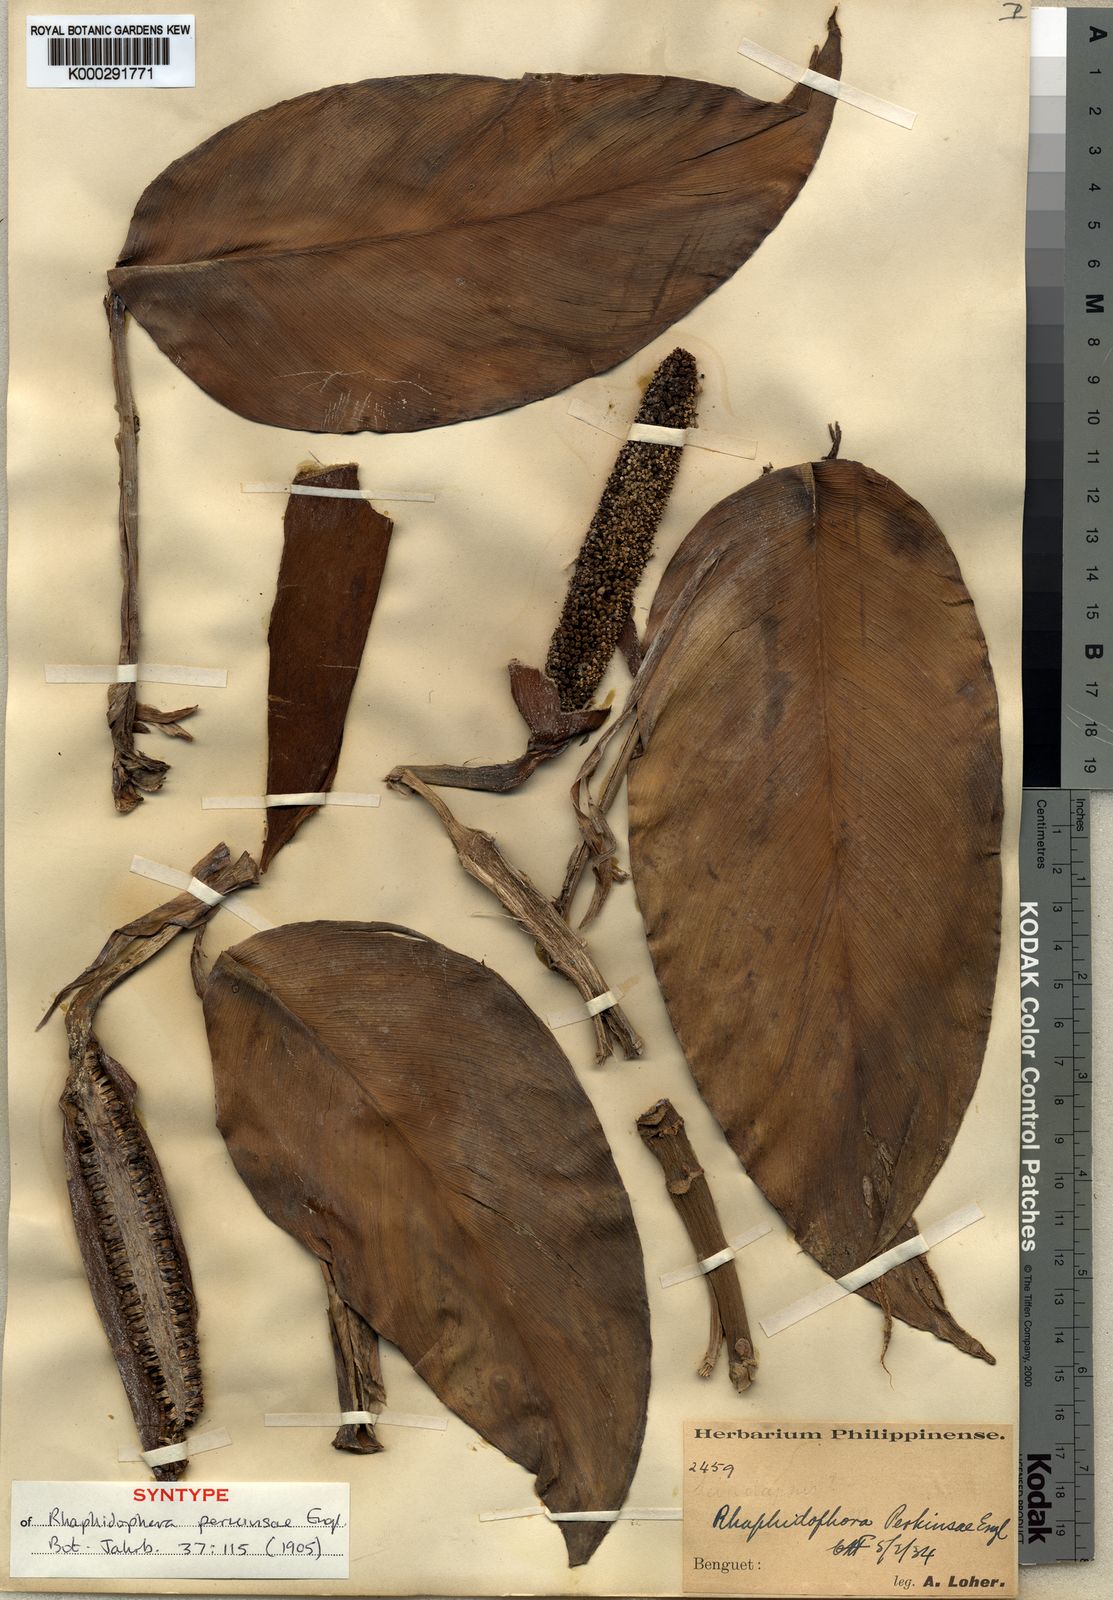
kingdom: Plantae
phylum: Tracheophyta
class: Liliopsida
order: Alismatales
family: Araceae
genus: Rhaphidophora
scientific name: Rhaphidophora perkinsiae
